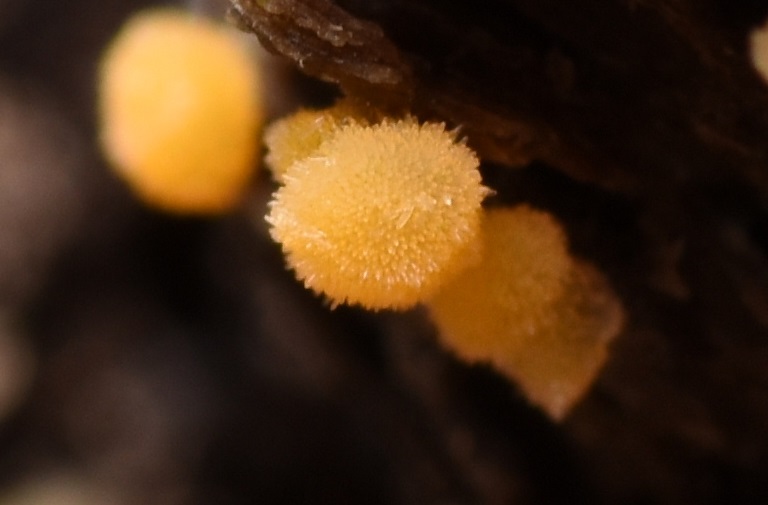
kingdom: Fungi
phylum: Ascomycota
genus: Bactridium
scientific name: Bactridium flavum
